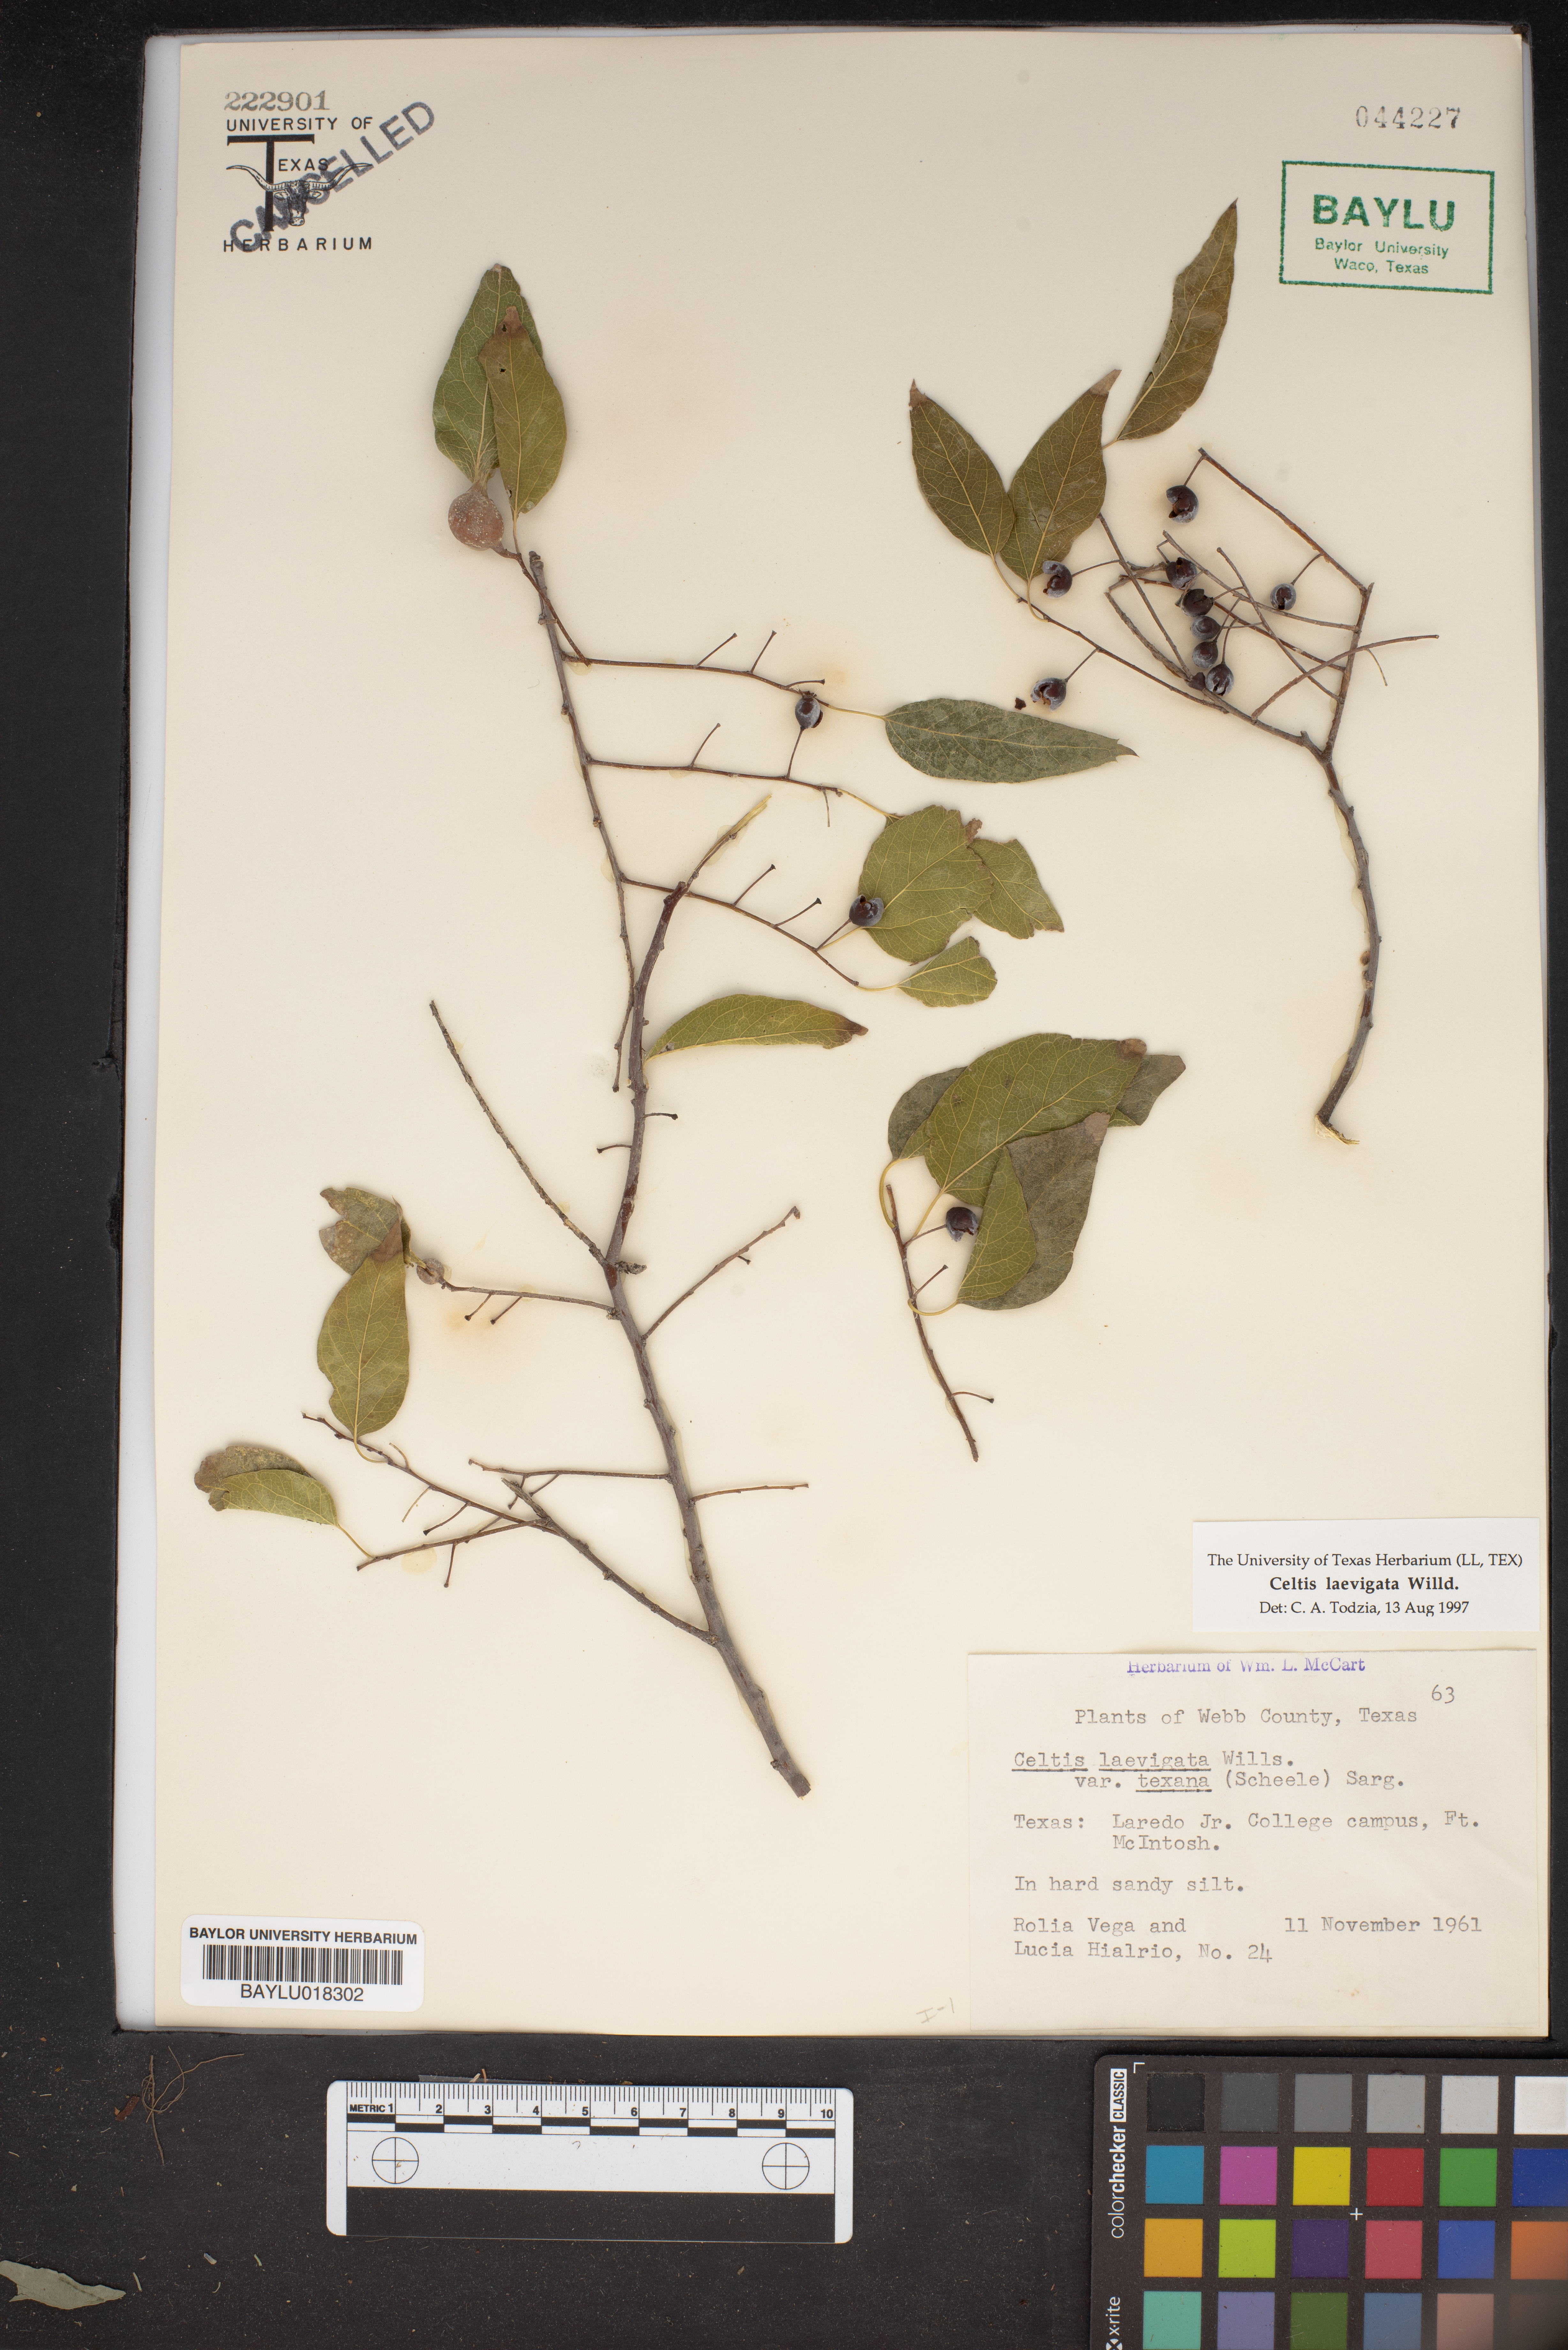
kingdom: Plantae
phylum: Tracheophyta
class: Magnoliopsida
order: Rosales
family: Cannabaceae
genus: Celtis
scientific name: Celtis laevigata
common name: Sugarberry
